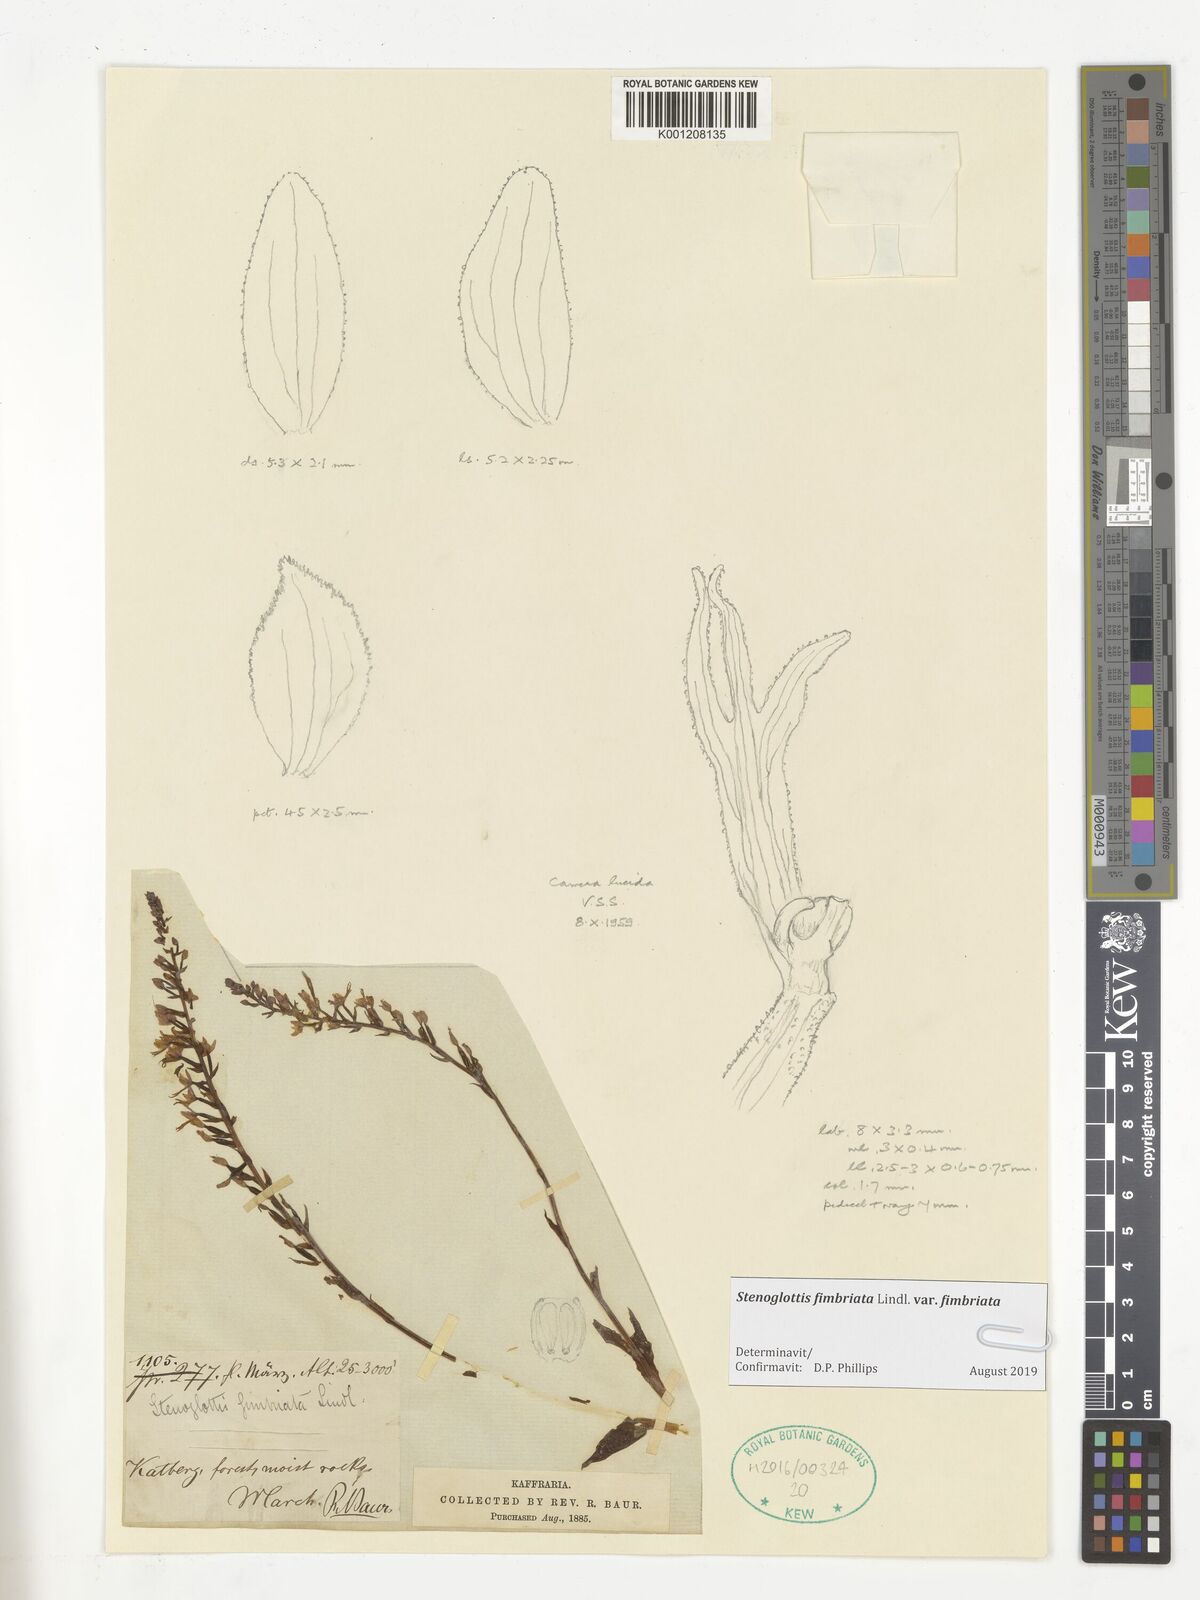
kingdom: Plantae
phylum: Tracheophyta
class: Liliopsida
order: Asparagales
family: Orchidaceae
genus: Stenoglottis
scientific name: Stenoglottis fimbriata
